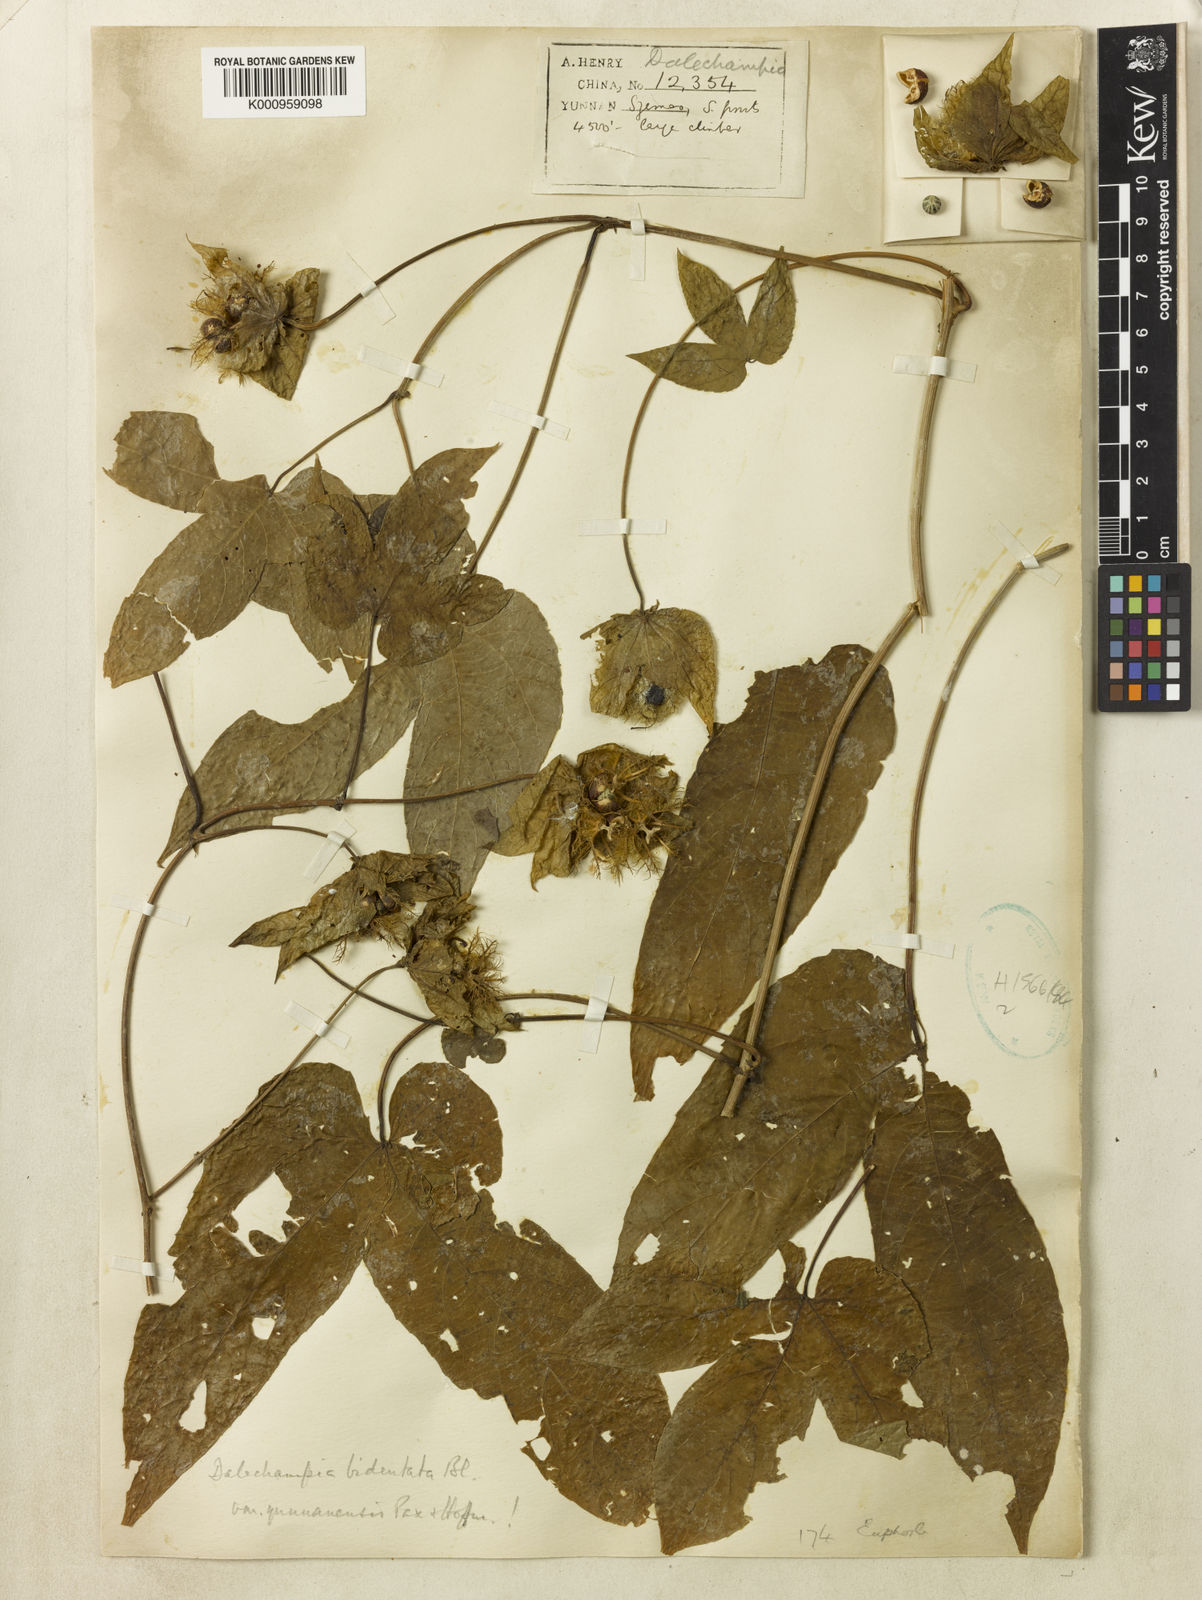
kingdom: Plantae
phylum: Tracheophyta
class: Magnoliopsida
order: Malpighiales
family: Euphorbiaceae
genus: Dalechampia
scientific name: Dalechampia bidentata
